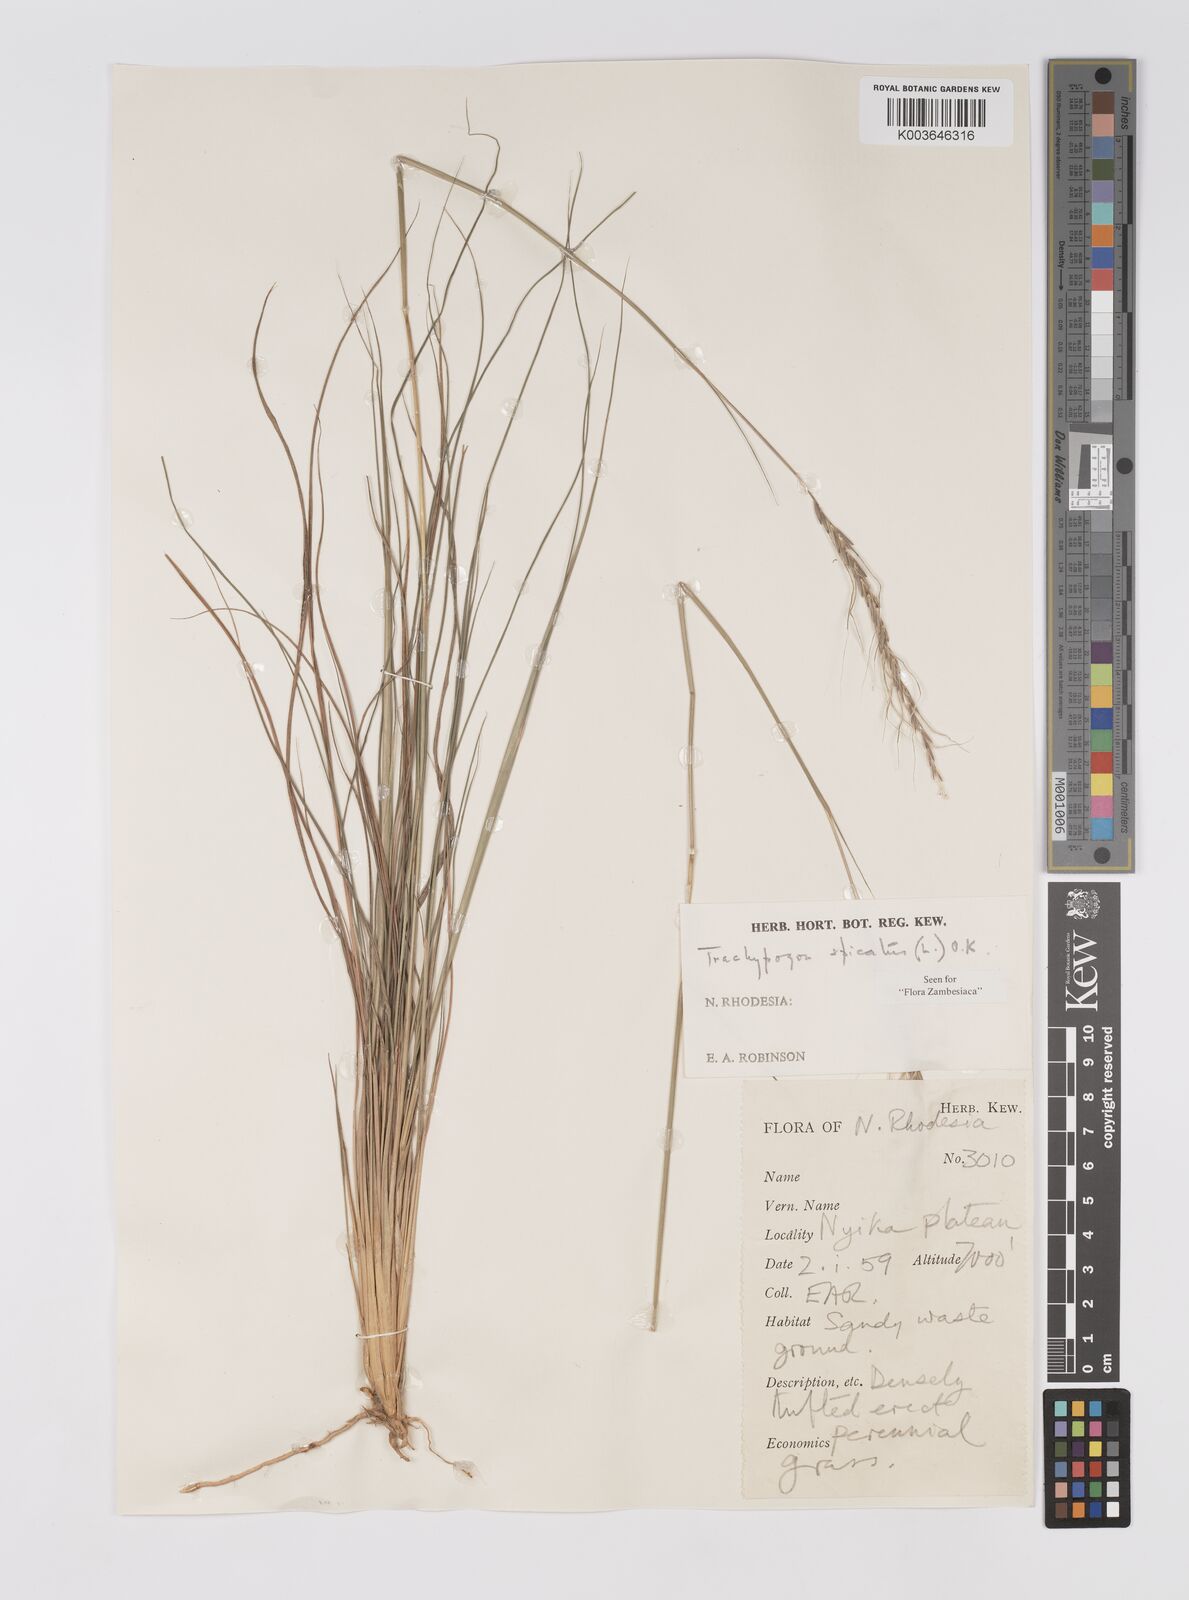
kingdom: Plantae
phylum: Tracheophyta
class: Liliopsida
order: Poales
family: Poaceae
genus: Trachypogon
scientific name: Trachypogon spicatus
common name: Crinkle-awn
